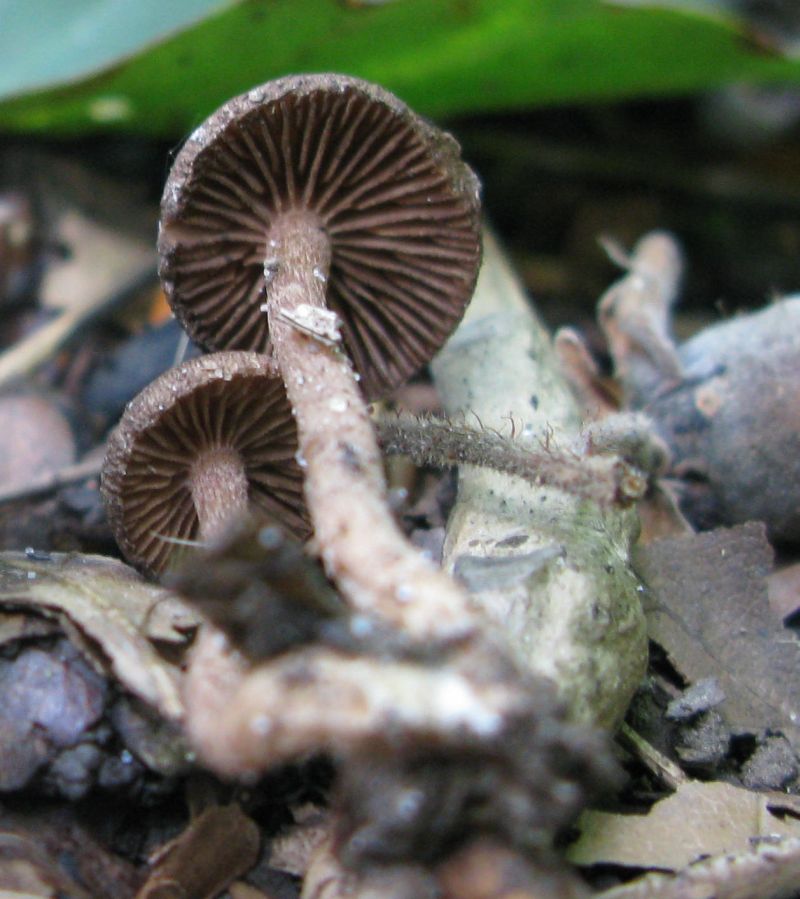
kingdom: Fungi
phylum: Basidiomycota
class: Agaricomycetes
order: Agaricales
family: Inocybaceae
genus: Inocybe
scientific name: Inocybe
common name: trævlhat
